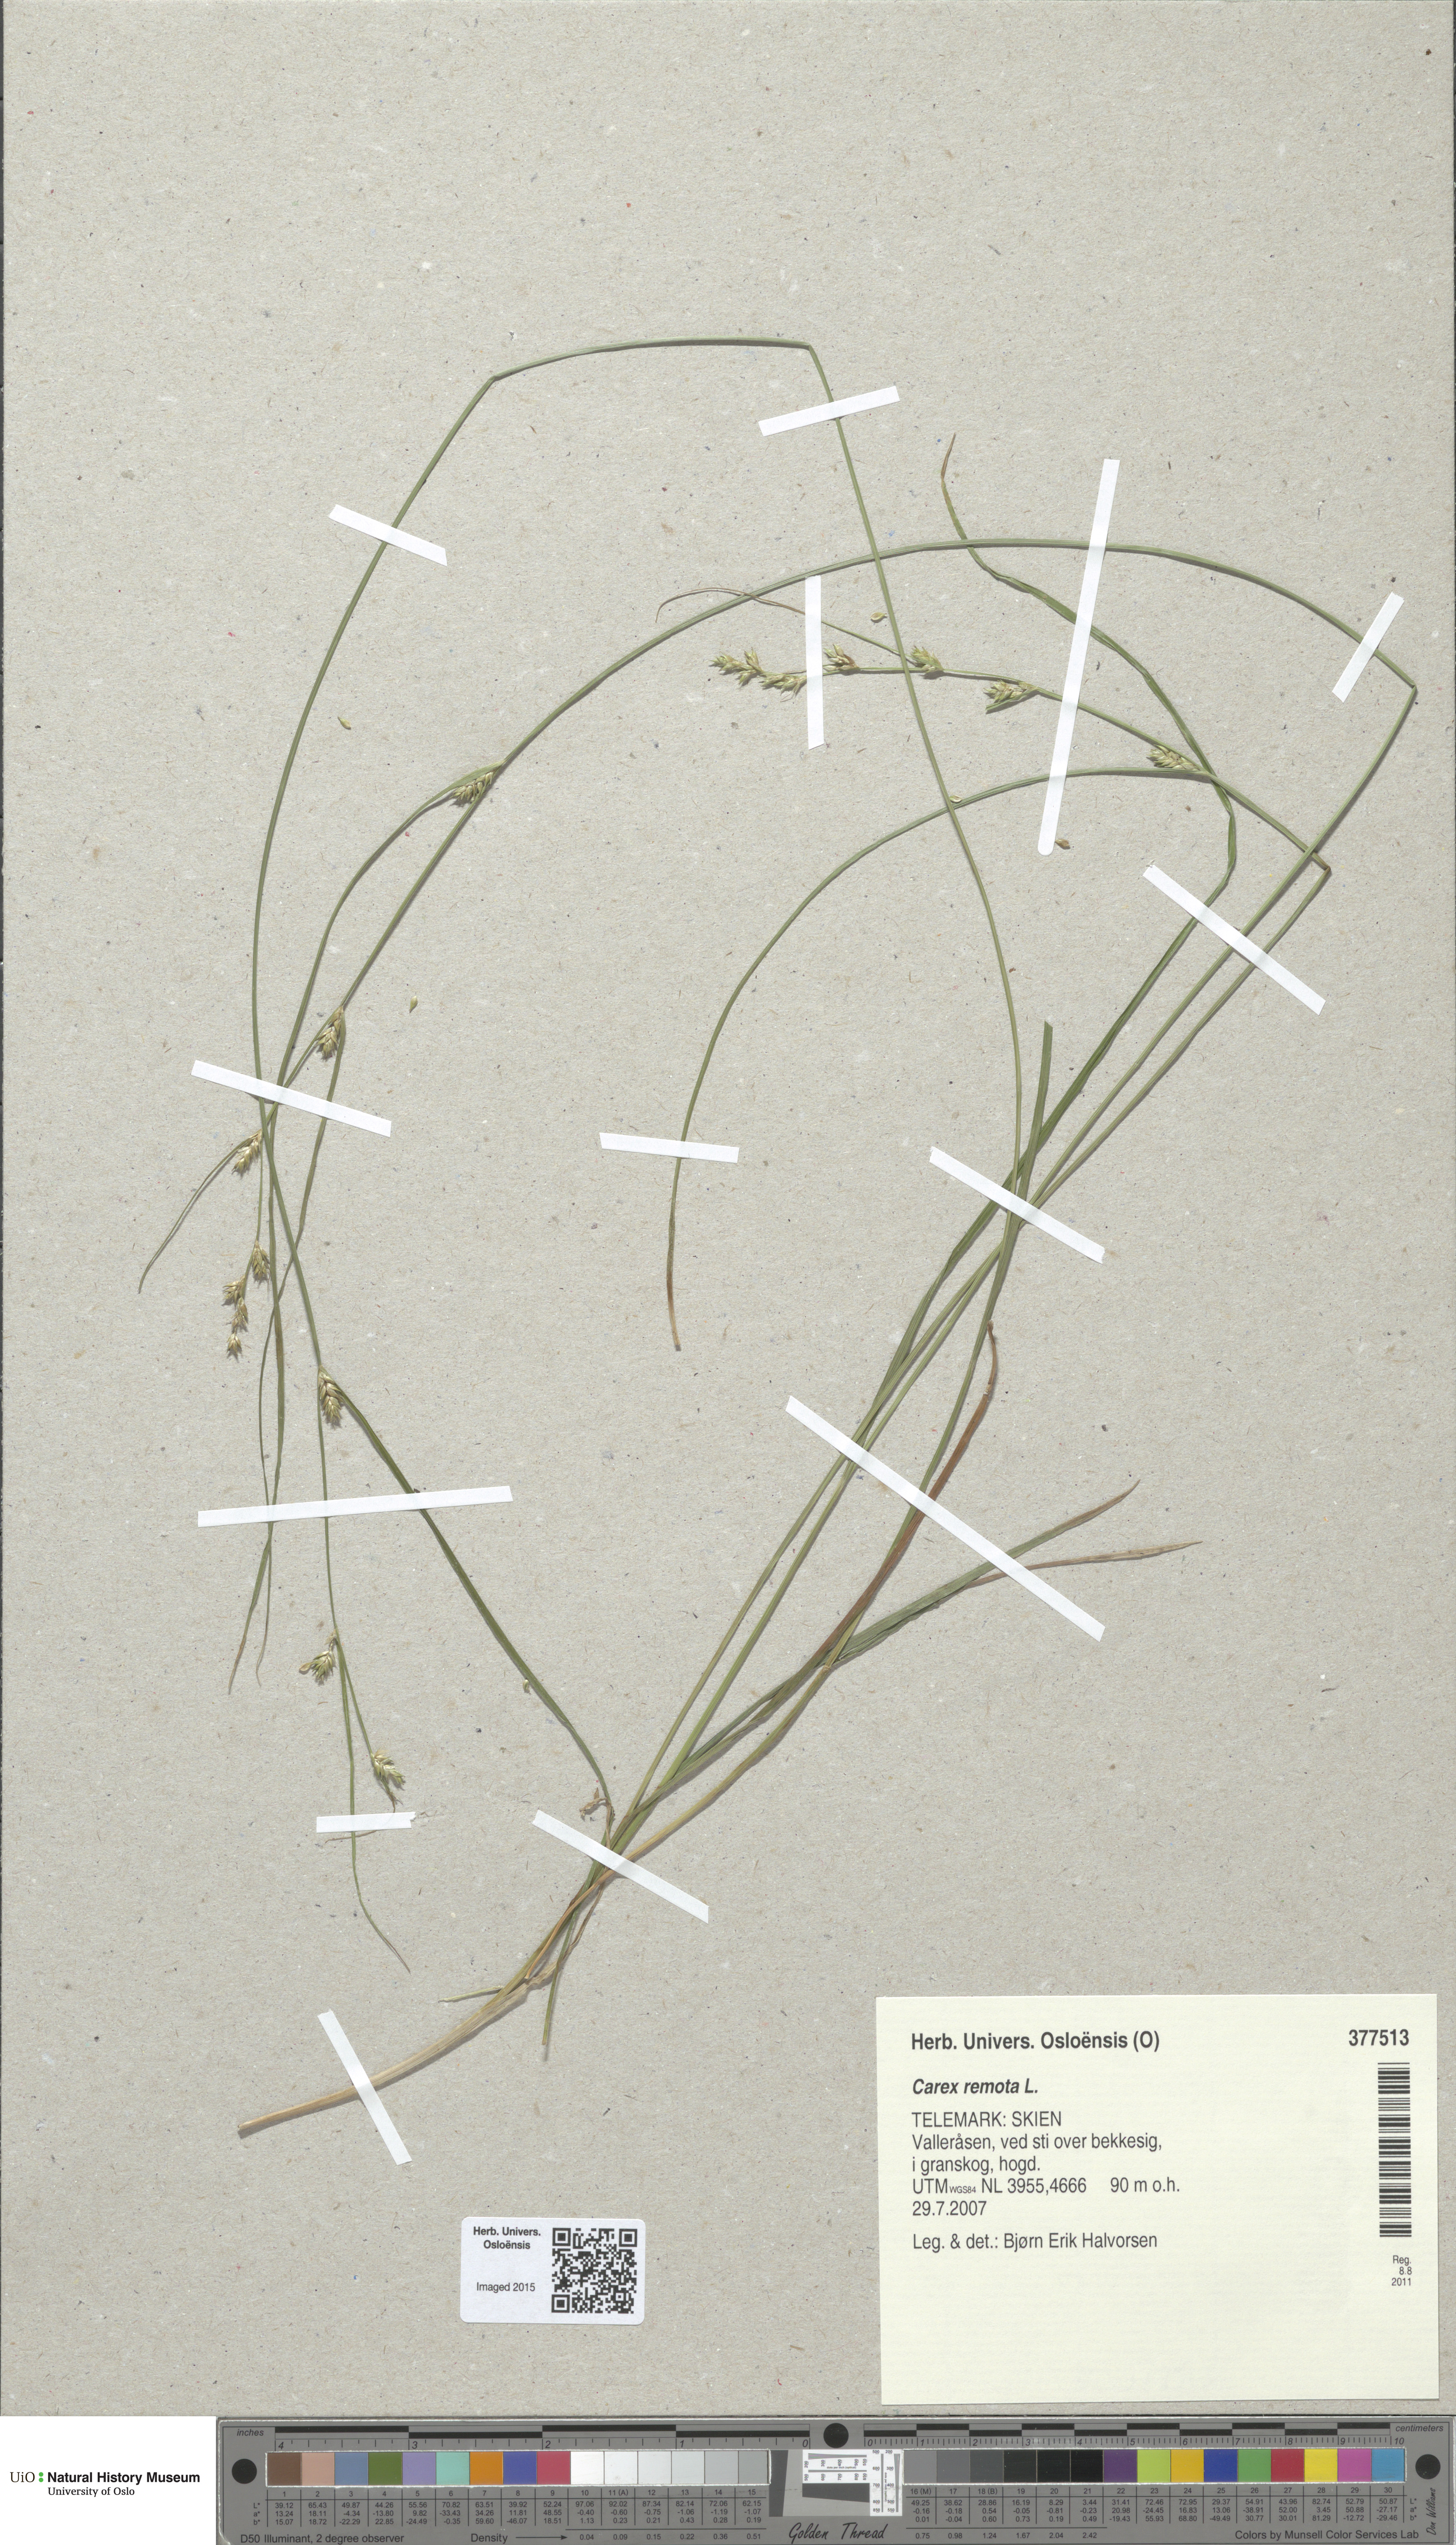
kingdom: Plantae
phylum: Tracheophyta
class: Liliopsida
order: Poales
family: Cyperaceae
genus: Carex
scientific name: Carex remota
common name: Remote sedge
